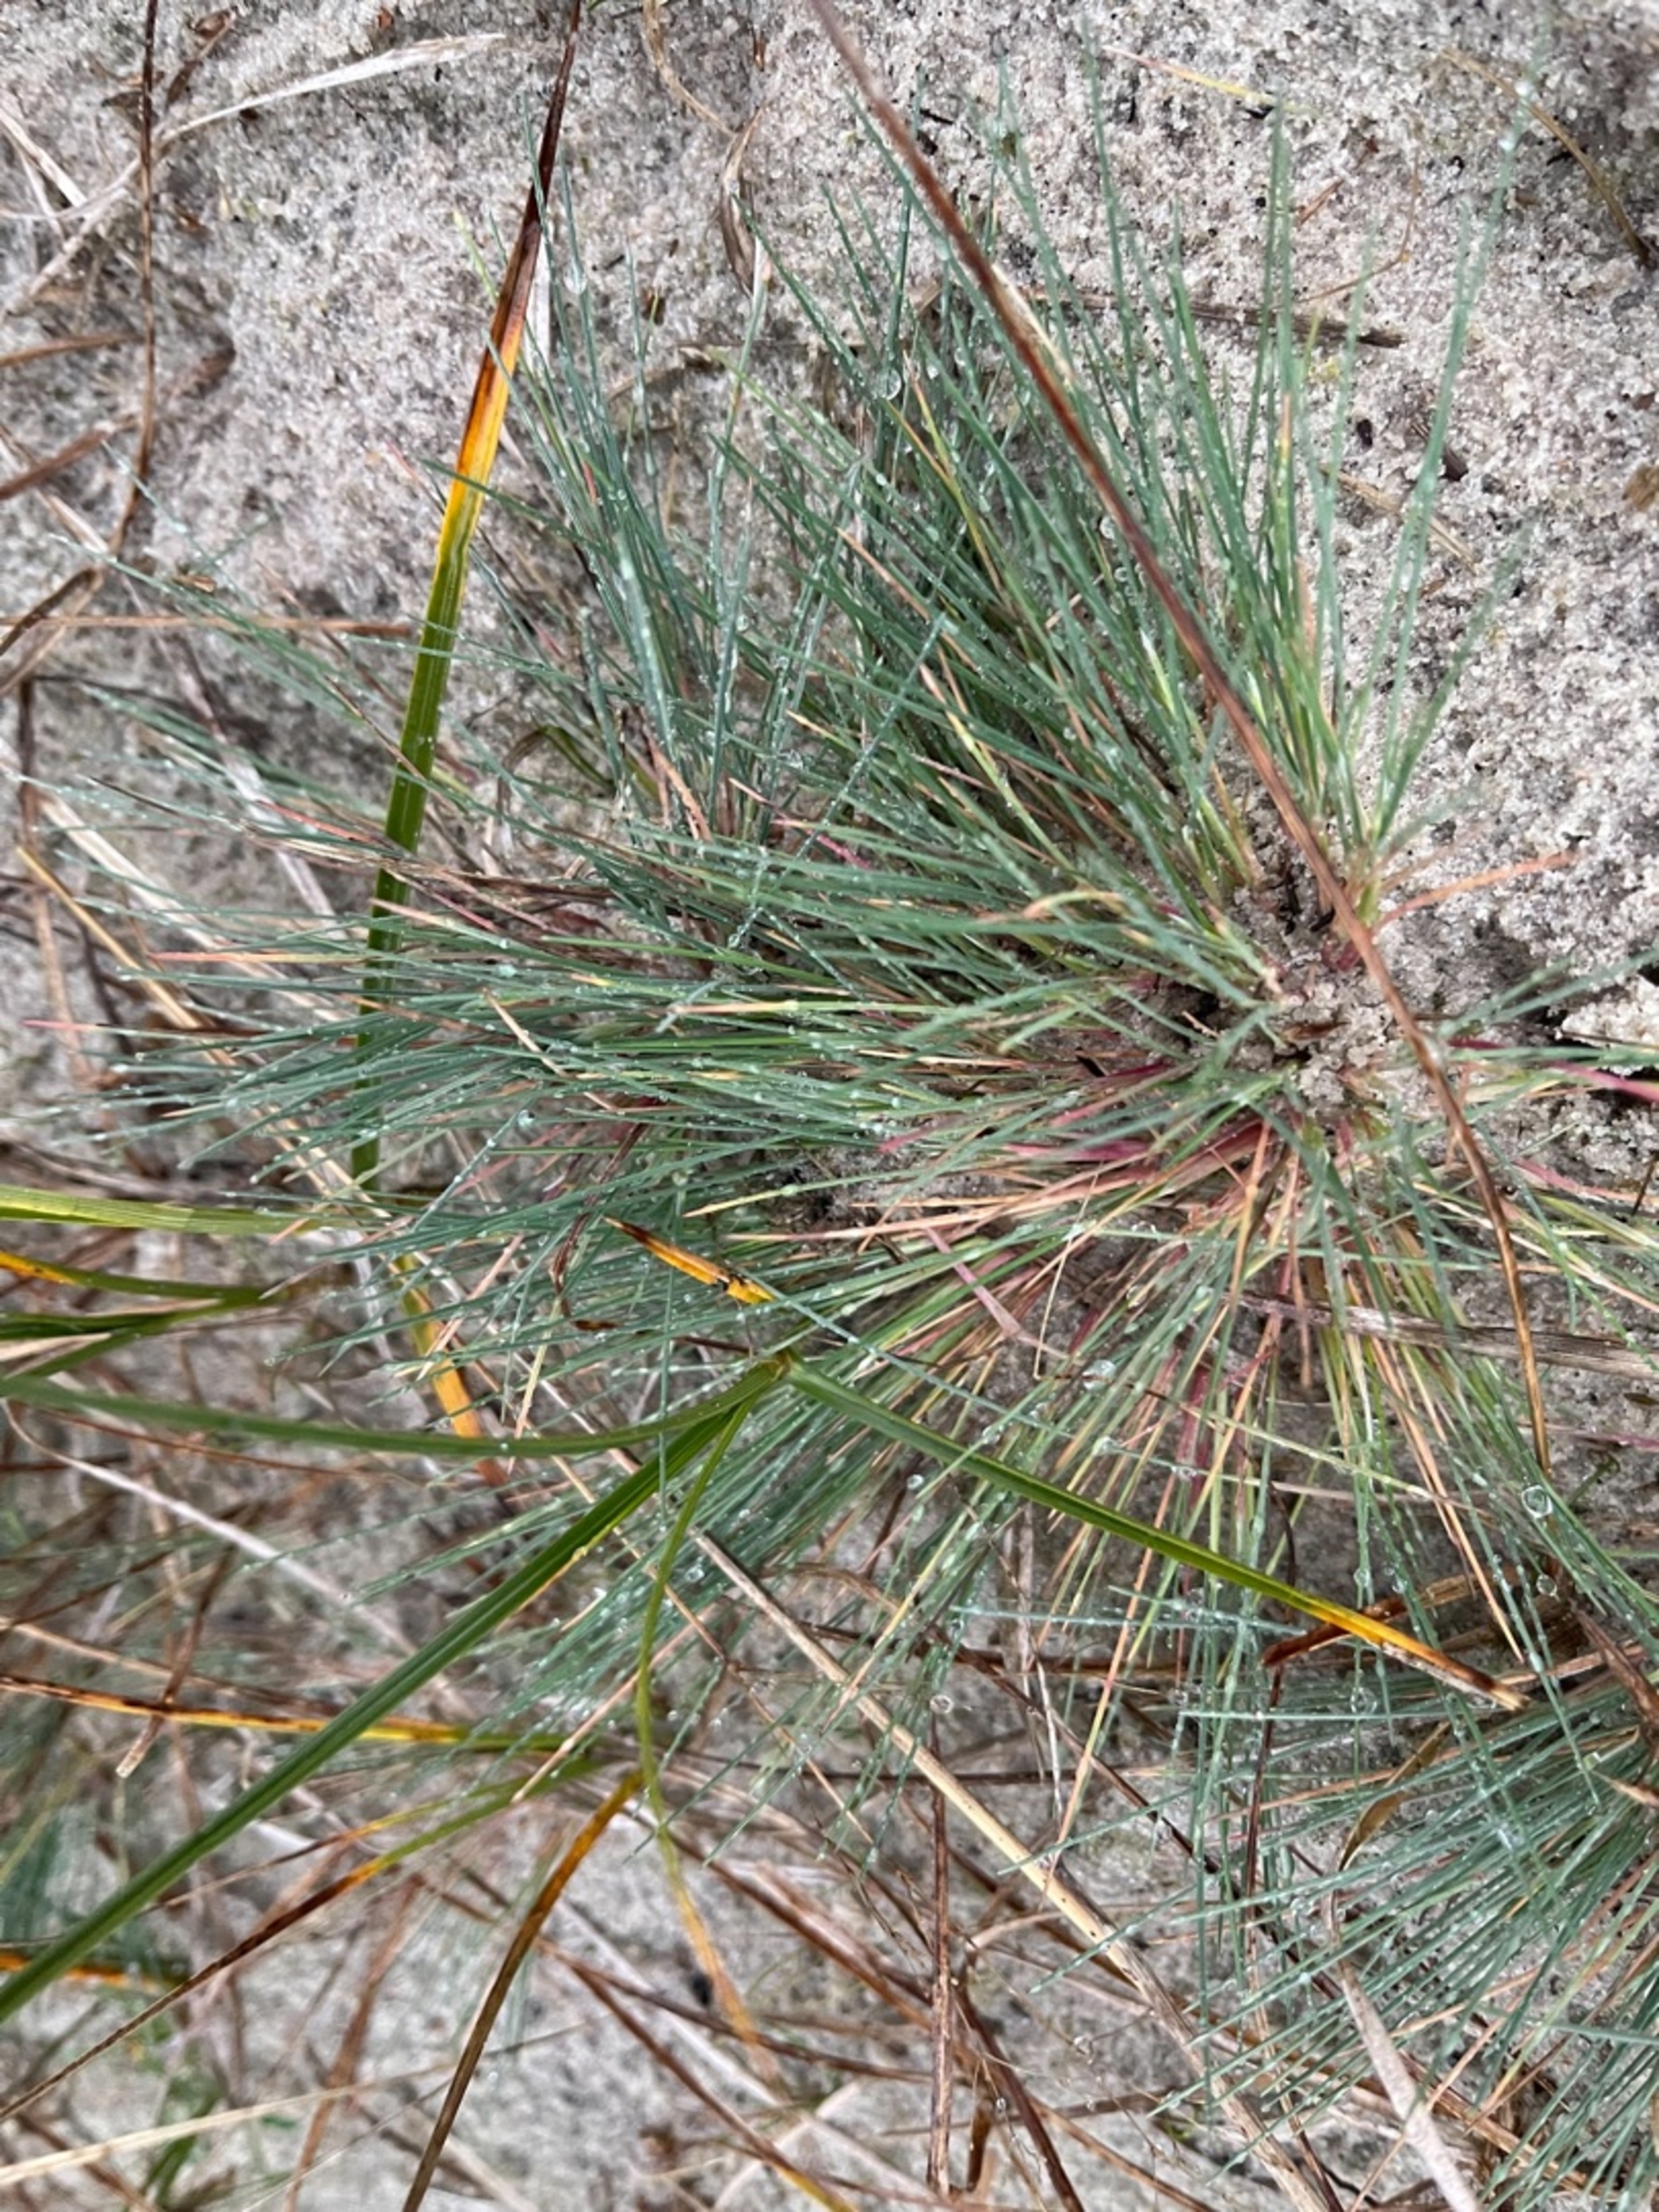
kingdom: Plantae
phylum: Tracheophyta
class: Liliopsida
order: Poales
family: Poaceae
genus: Corynephorus
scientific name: Corynephorus canescens
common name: Sandskæg
